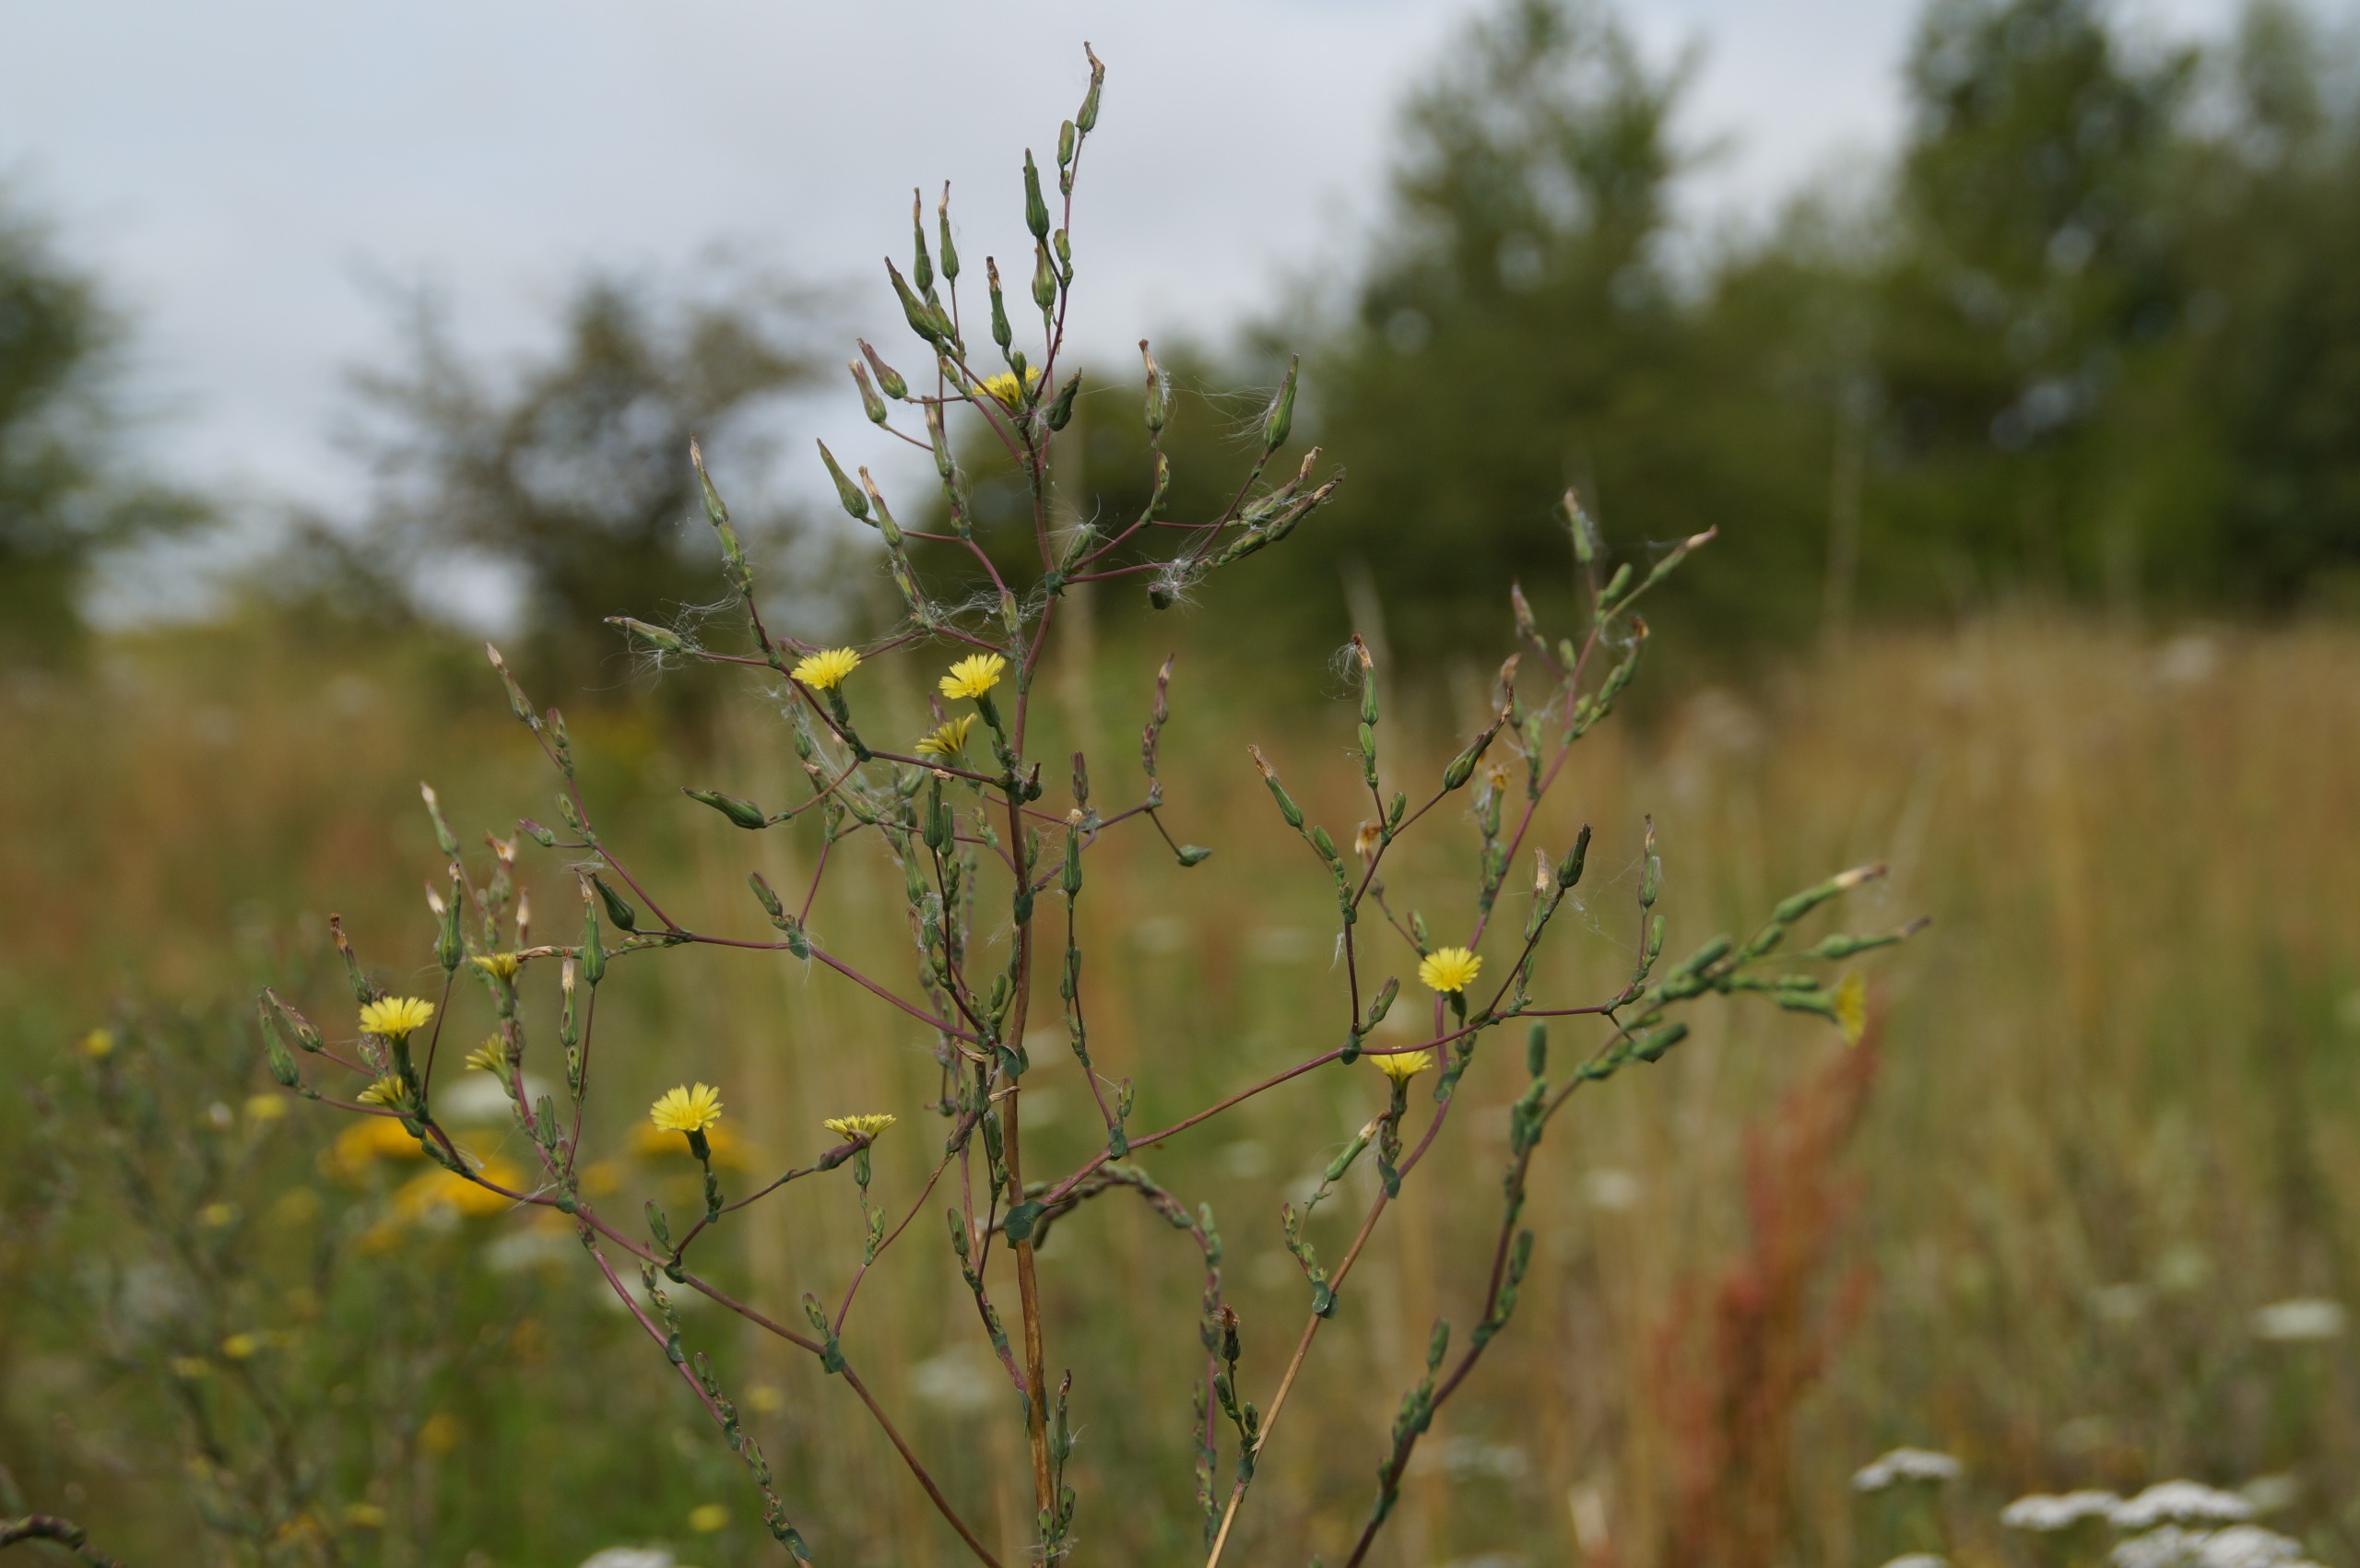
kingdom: Plantae
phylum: Tracheophyta
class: Magnoliopsida
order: Asterales
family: Asteraceae
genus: Lactuca
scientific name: Lactuca serriola
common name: Tornet salat
